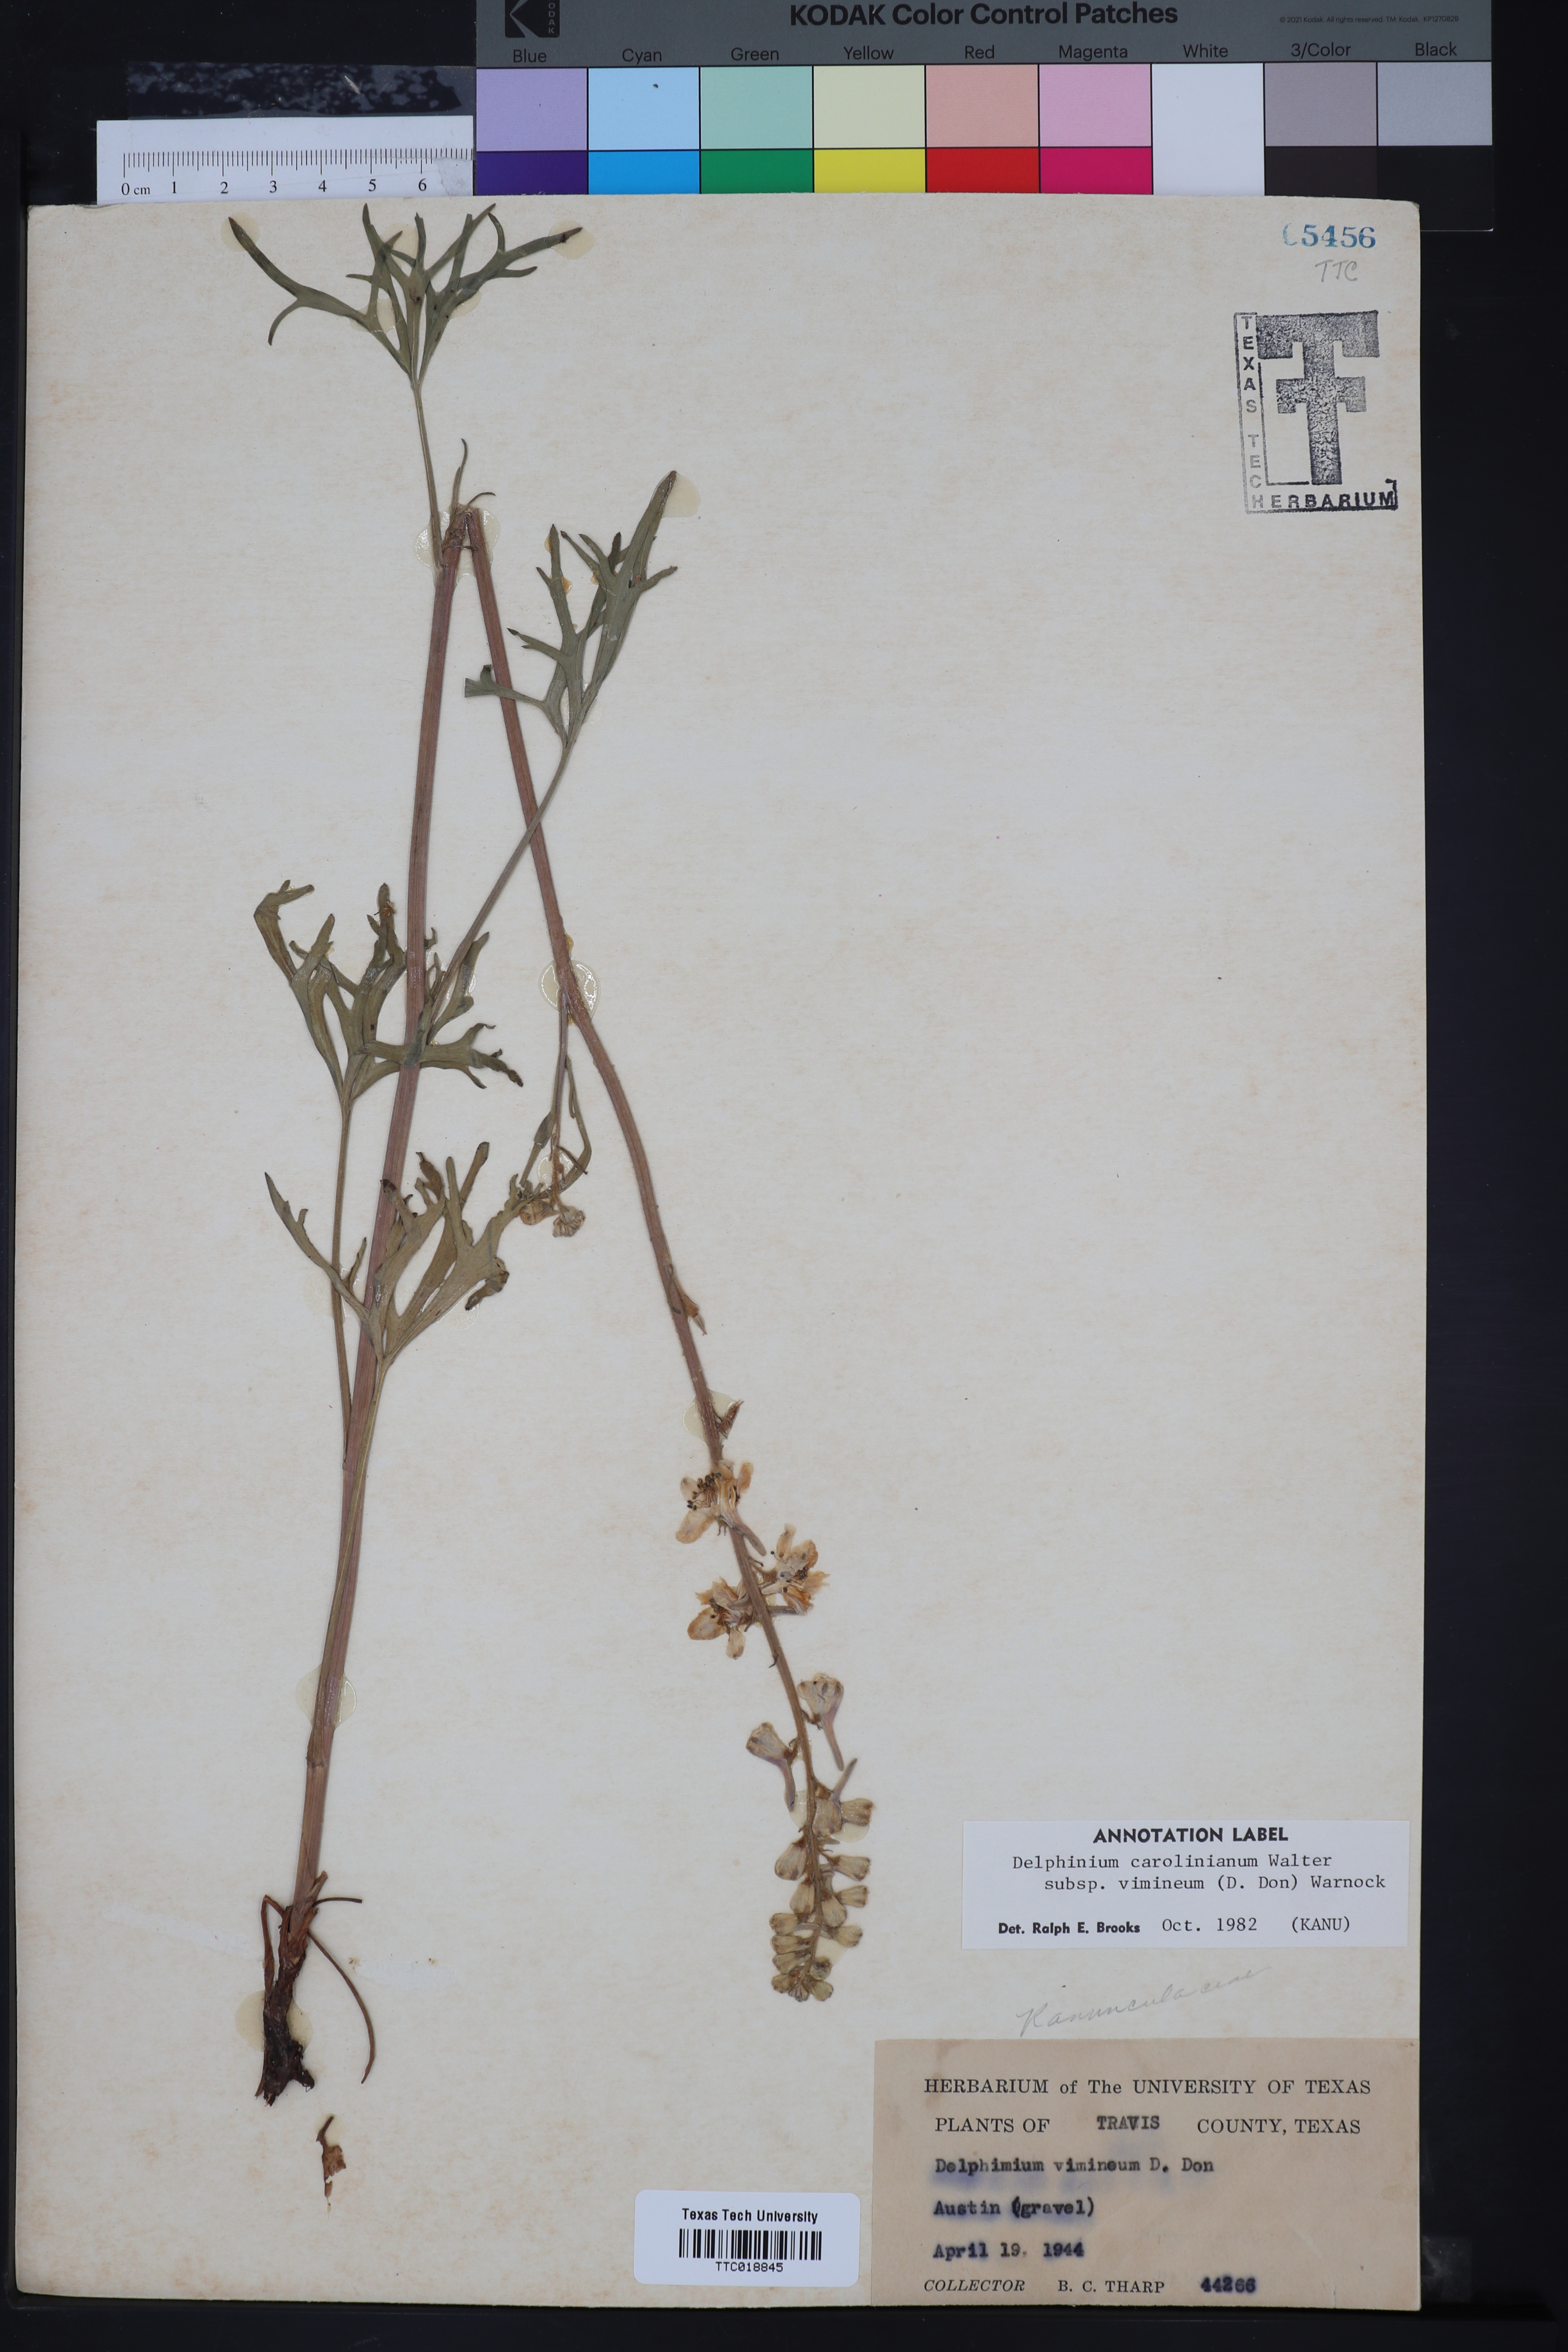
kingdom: Plantae
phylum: Tracheophyta
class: Magnoliopsida
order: Ranunculales
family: Ranunculaceae
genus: Delphinium
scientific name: Delphinium carolinianum
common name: Carolina larkspur
